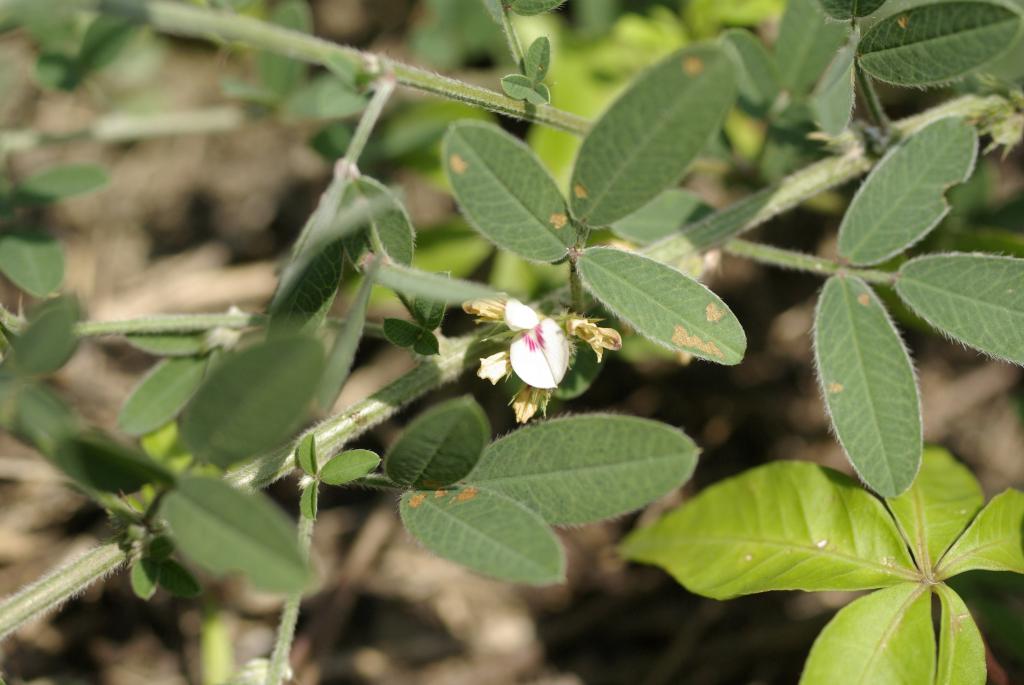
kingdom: Plantae
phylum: Tracheophyta
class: Magnoliopsida
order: Fabales
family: Fabaceae
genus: Lespedeza
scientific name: Lespedeza daurica
